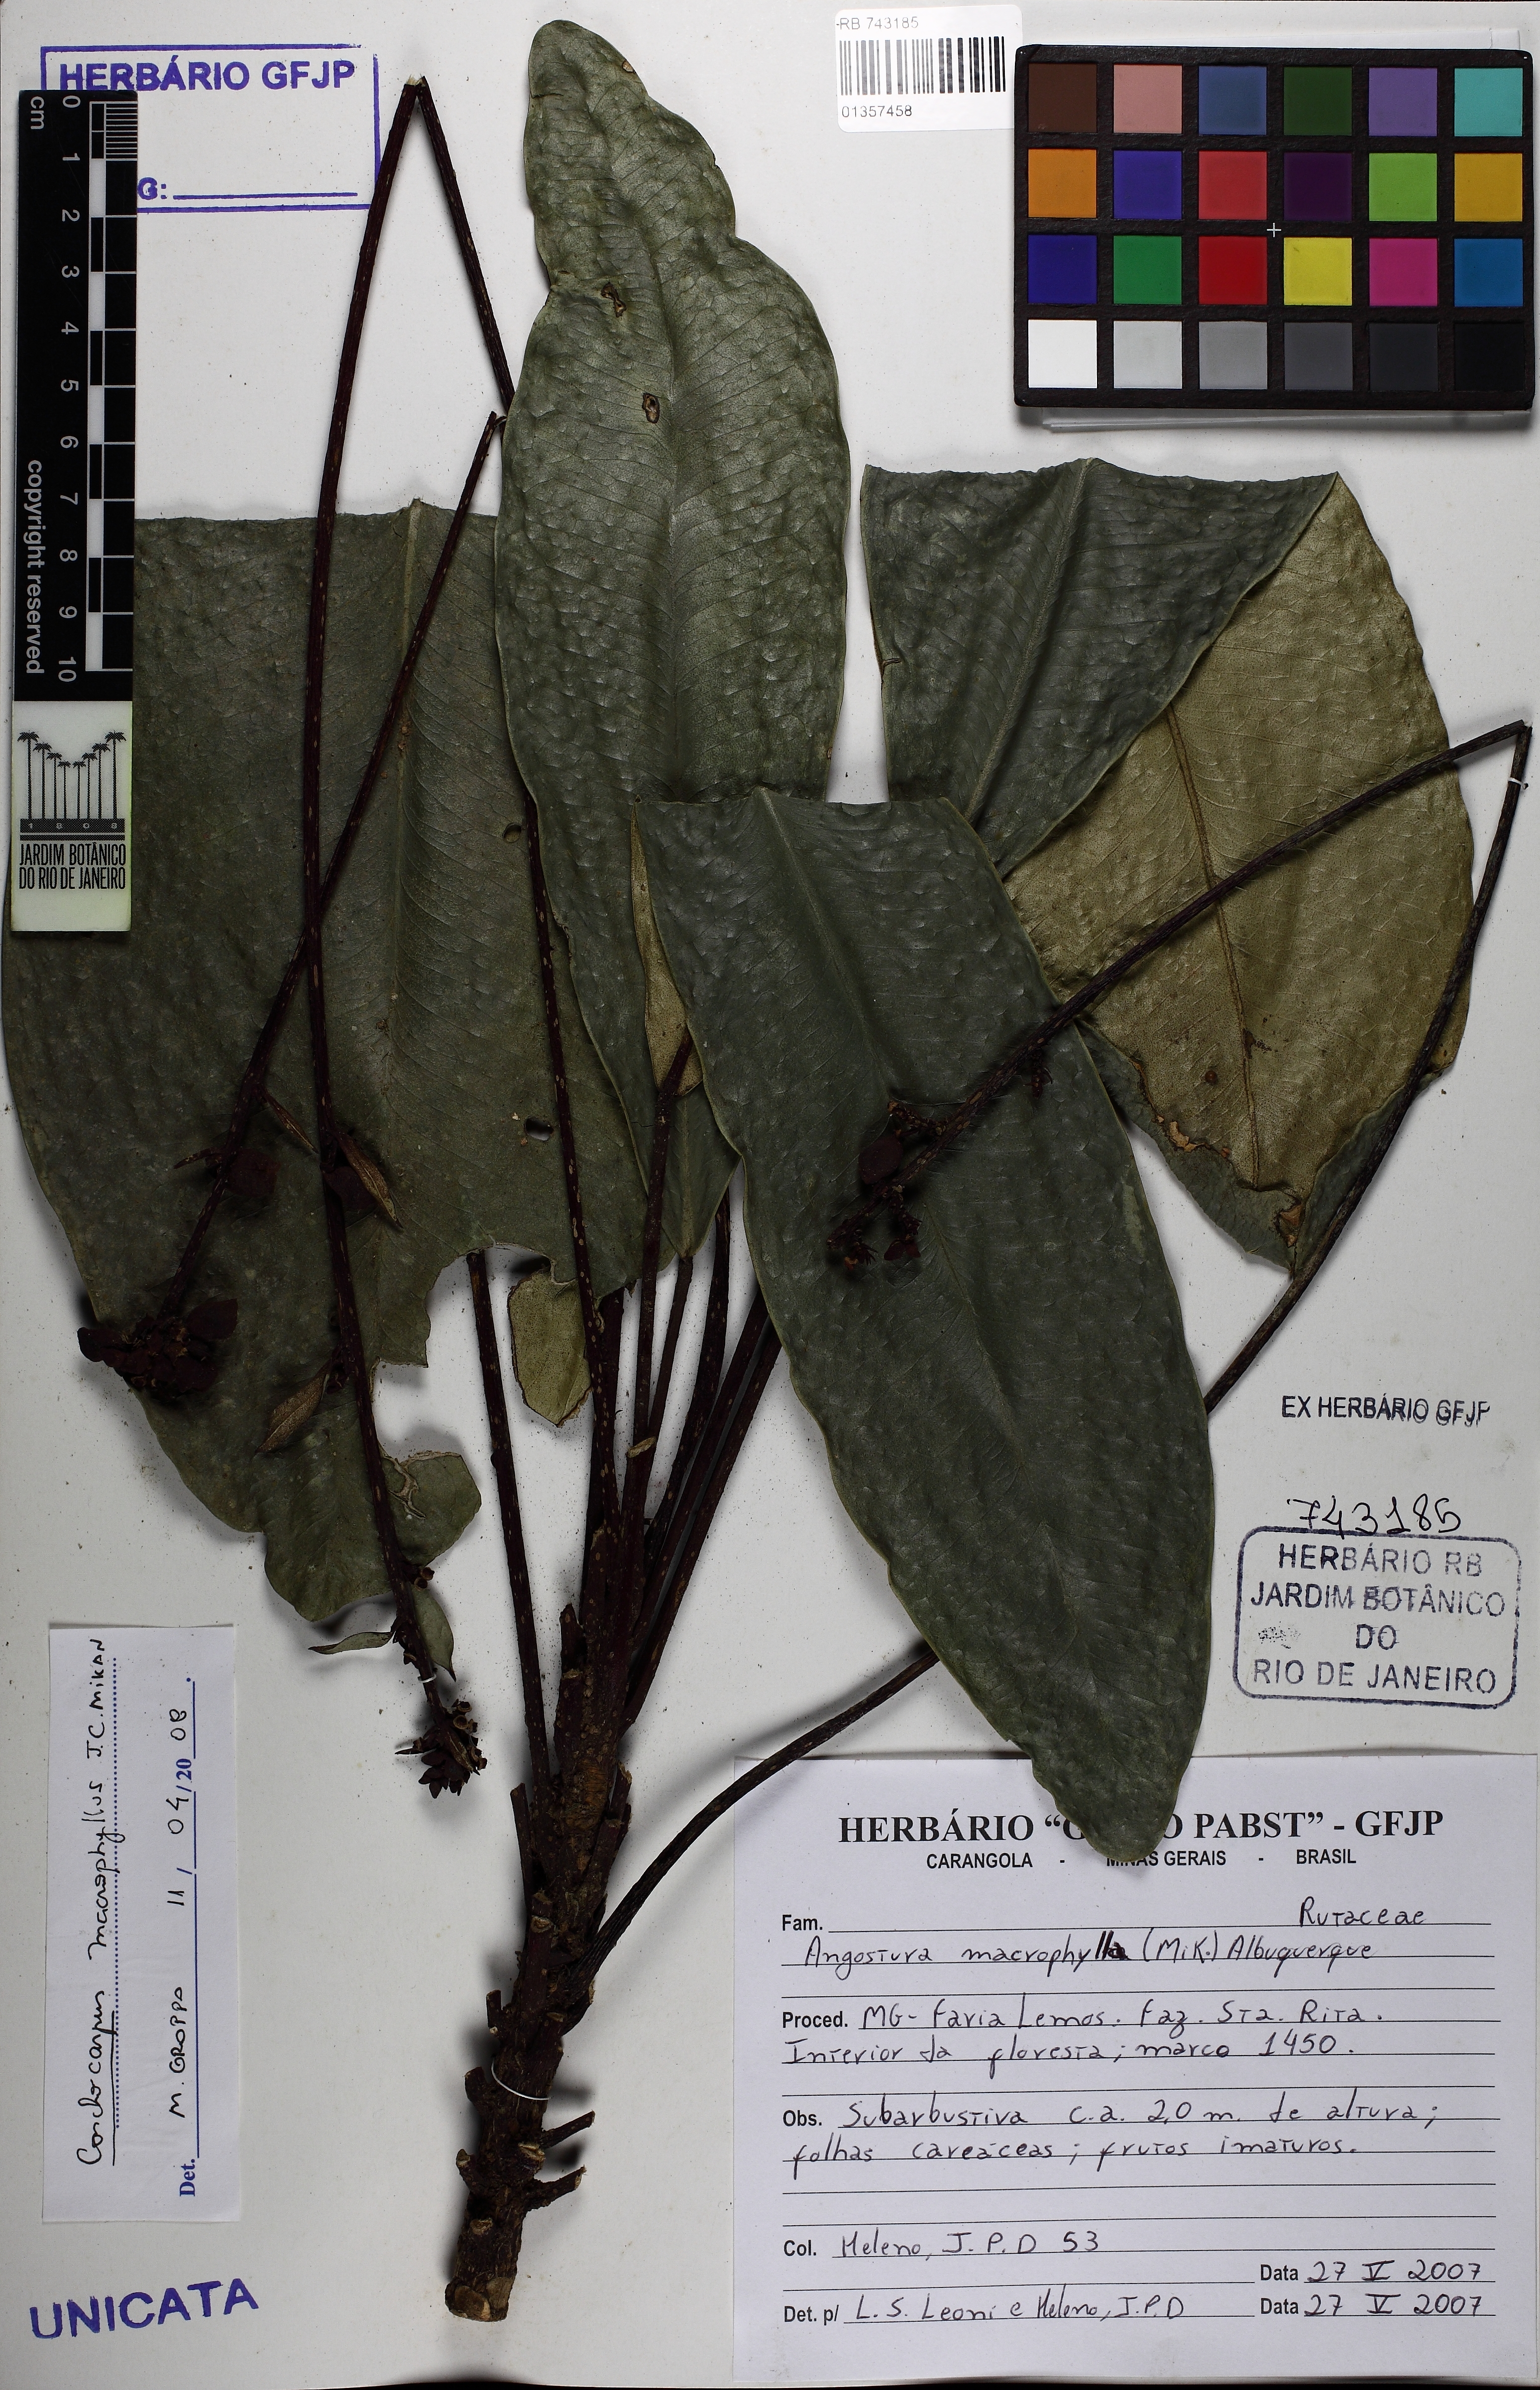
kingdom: Plantae
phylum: Tracheophyta
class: Magnoliopsida
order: Sapindales
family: Rutaceae
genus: Conchocarpus
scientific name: Conchocarpus macrophyllus
